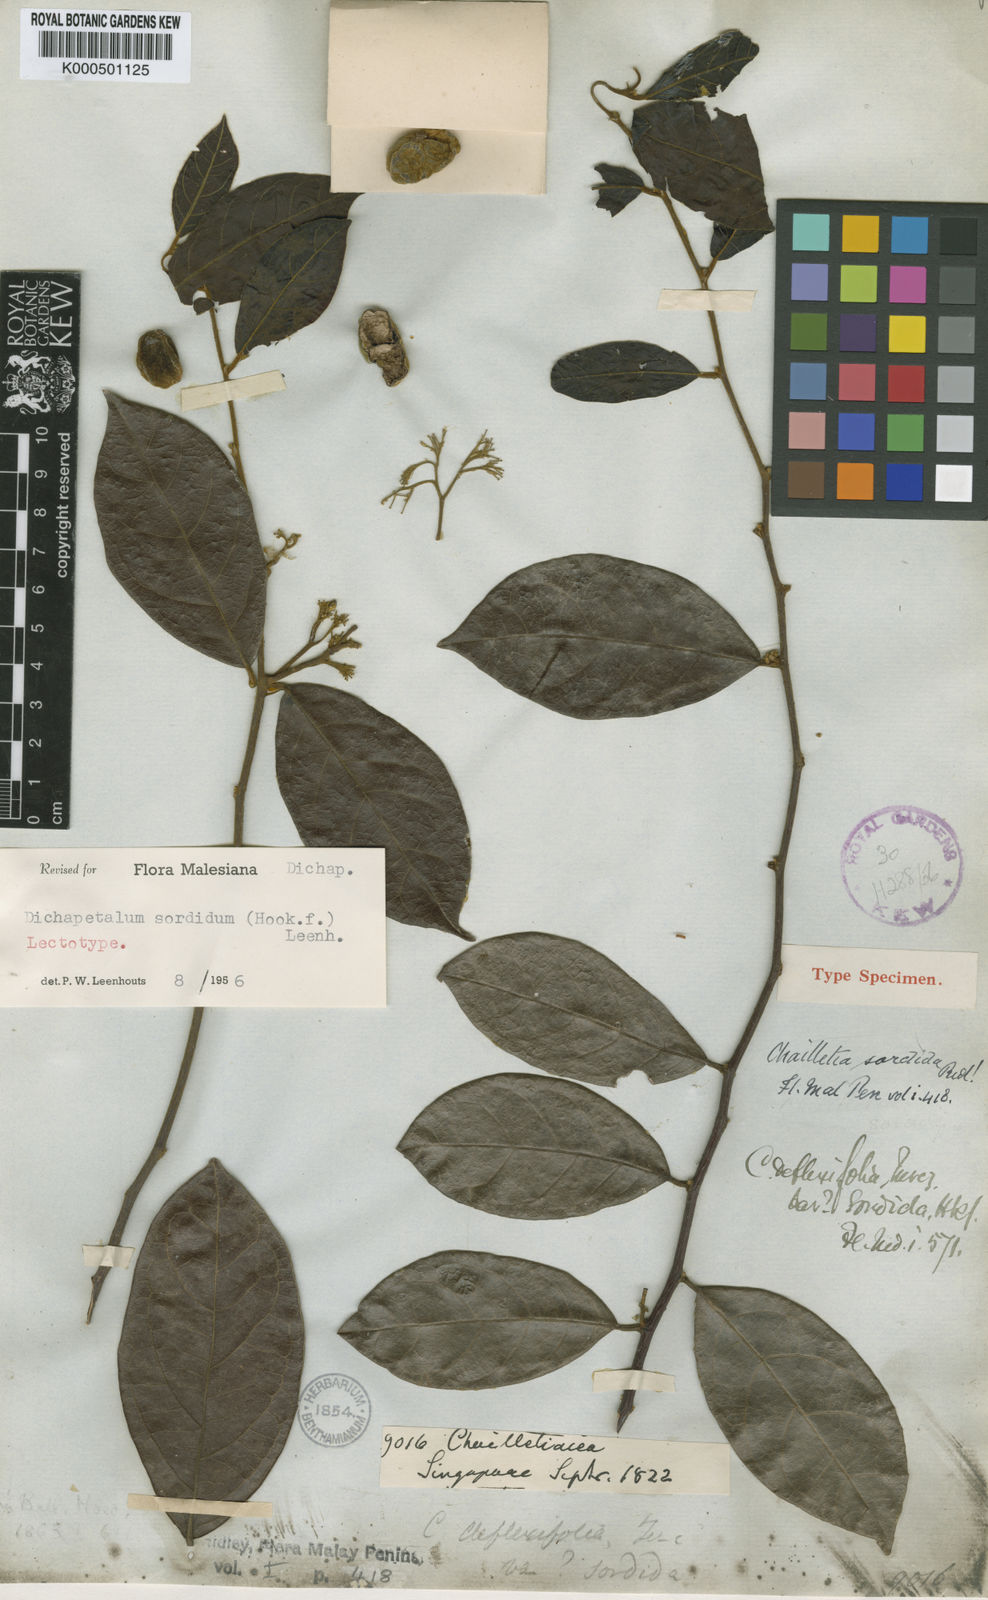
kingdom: Plantae
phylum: Tracheophyta
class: Magnoliopsida
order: Malpighiales
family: Dichapetalaceae
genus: Dichapetalum
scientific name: Dichapetalum sordidum
